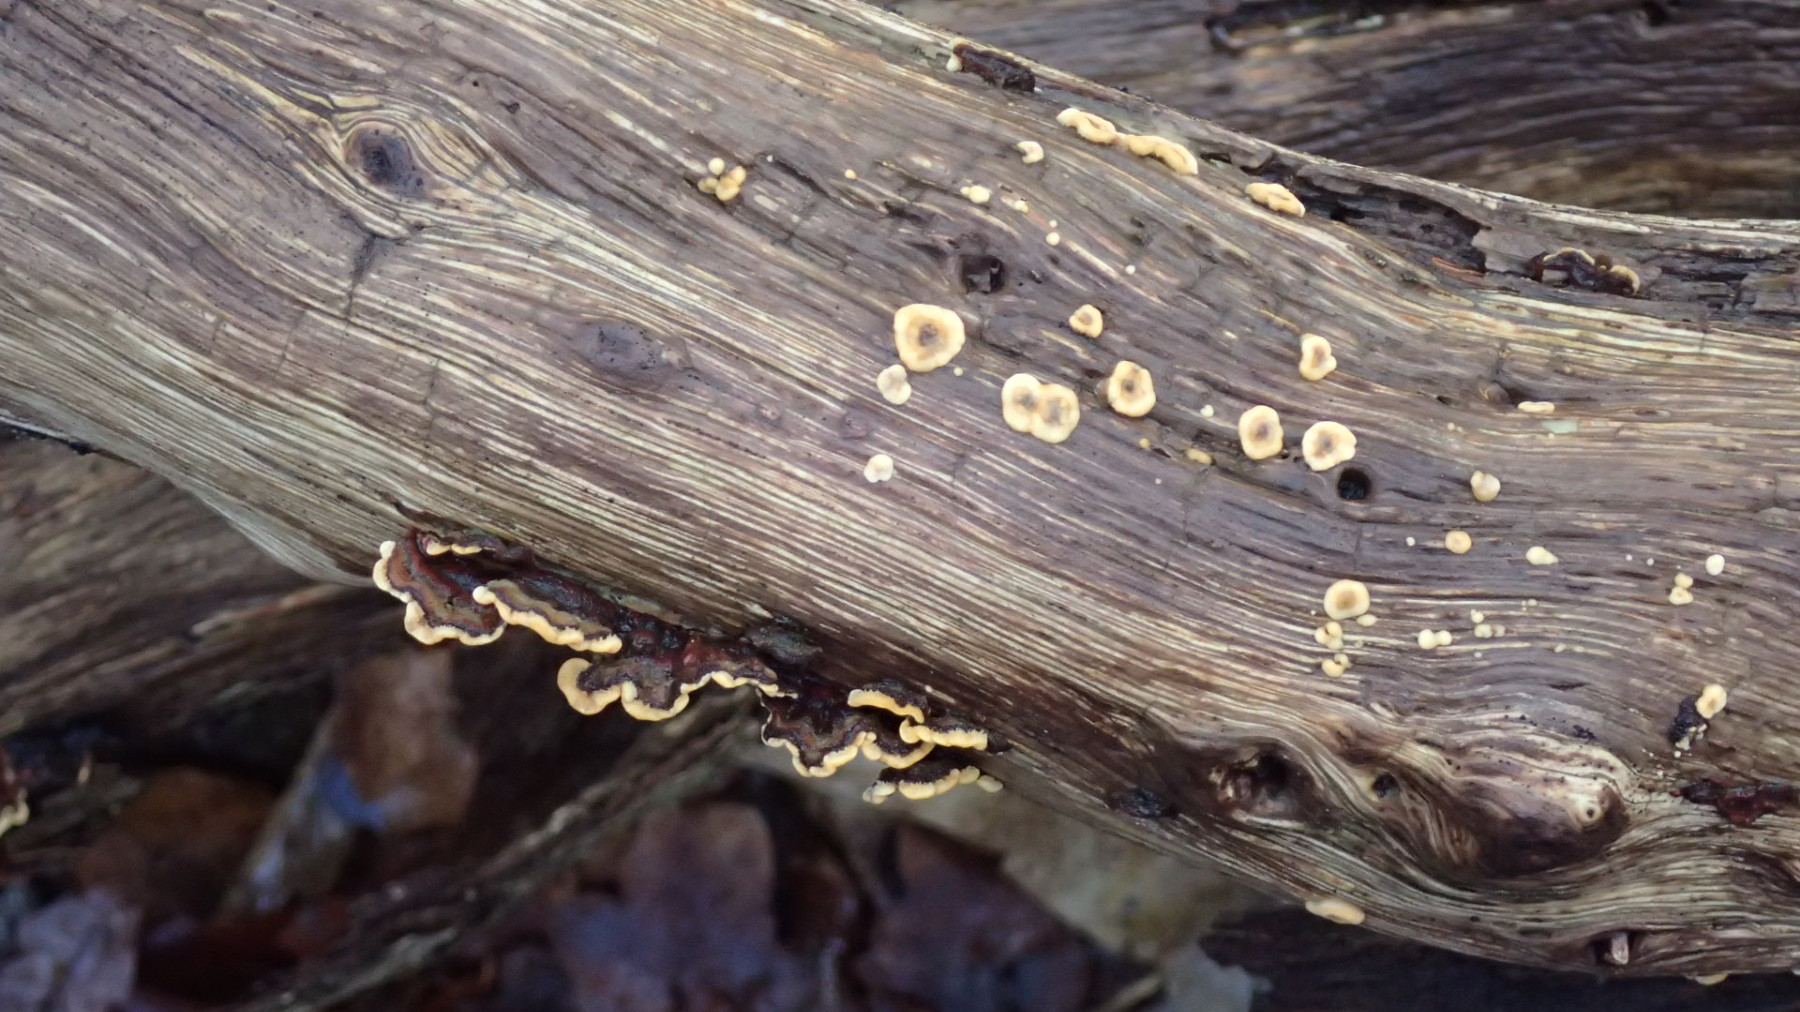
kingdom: Fungi
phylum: Basidiomycota
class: Agaricomycetes
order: Russulales
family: Stereaceae
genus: Stereum
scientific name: Stereum hirsutum
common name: håret lædersvamp
